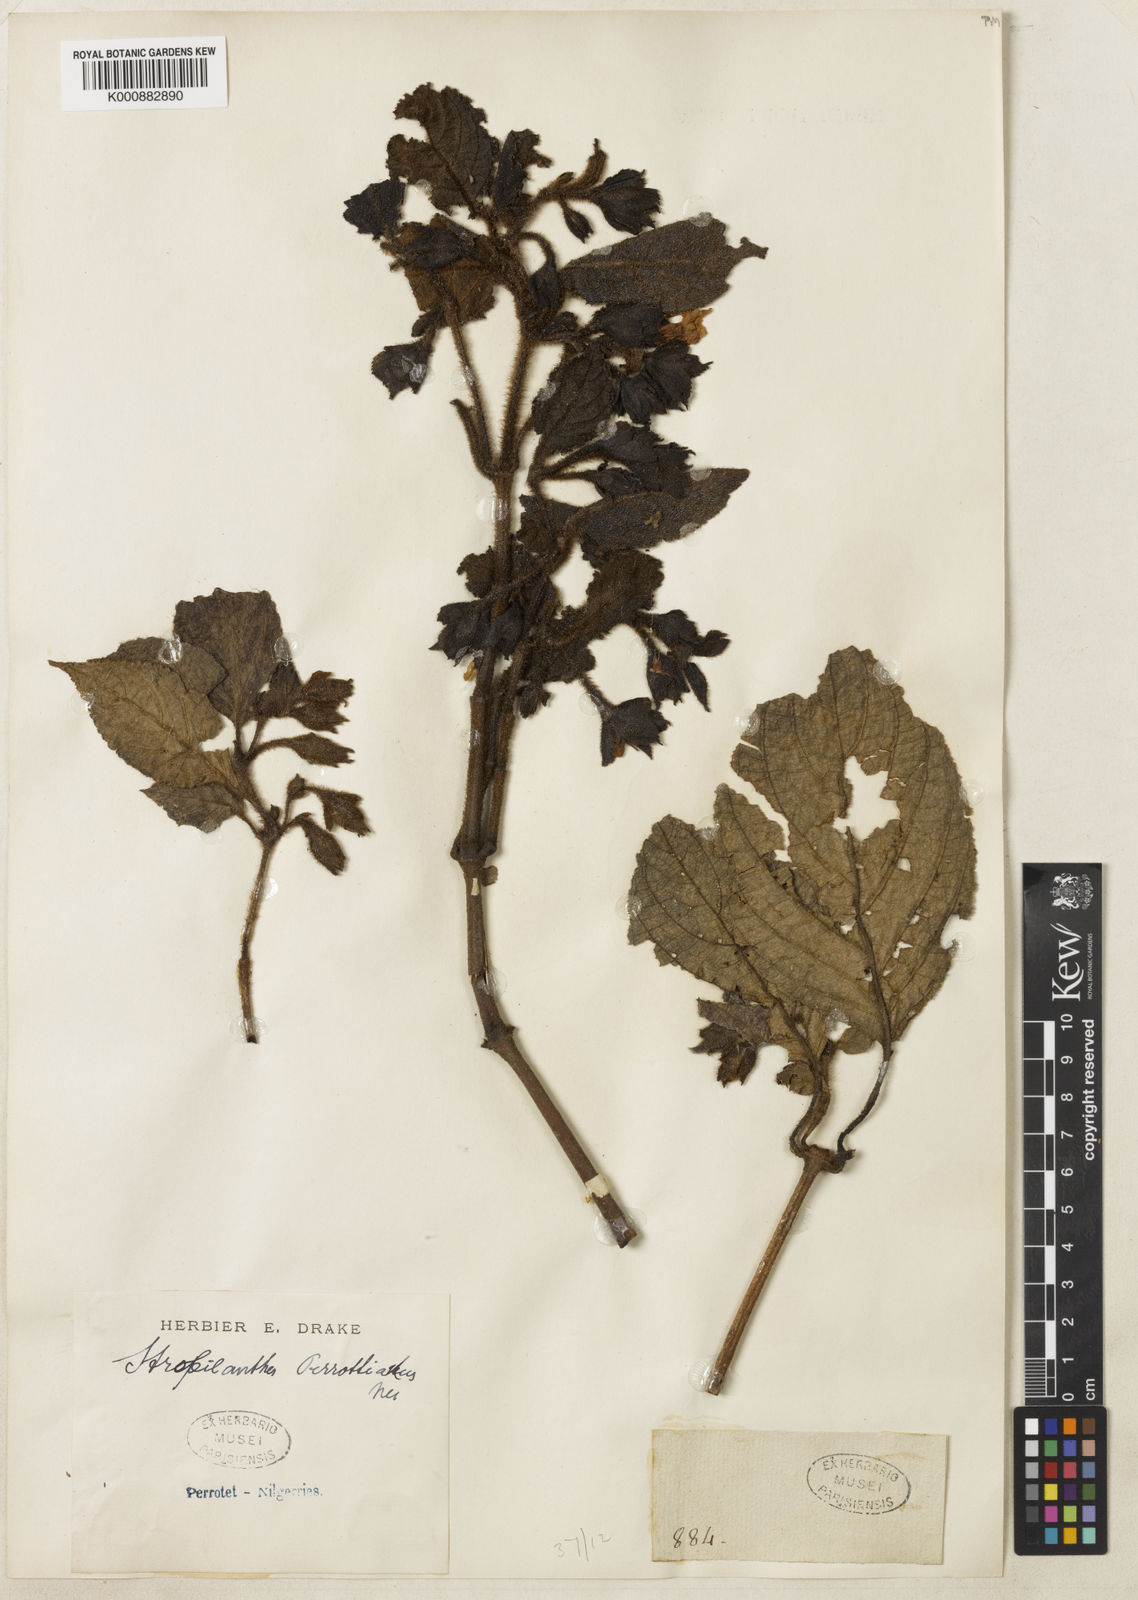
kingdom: Plantae
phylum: Tracheophyta
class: Magnoliopsida
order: Lamiales
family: Acanthaceae
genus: Strobilanthes
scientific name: Strobilanthes perrottetiana
